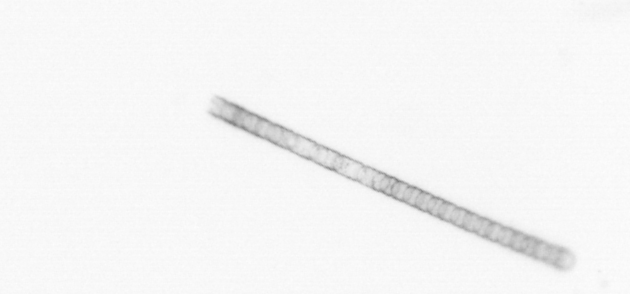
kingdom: Chromista
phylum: Ochrophyta
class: Bacillariophyceae
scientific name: Bacillariophyceae
